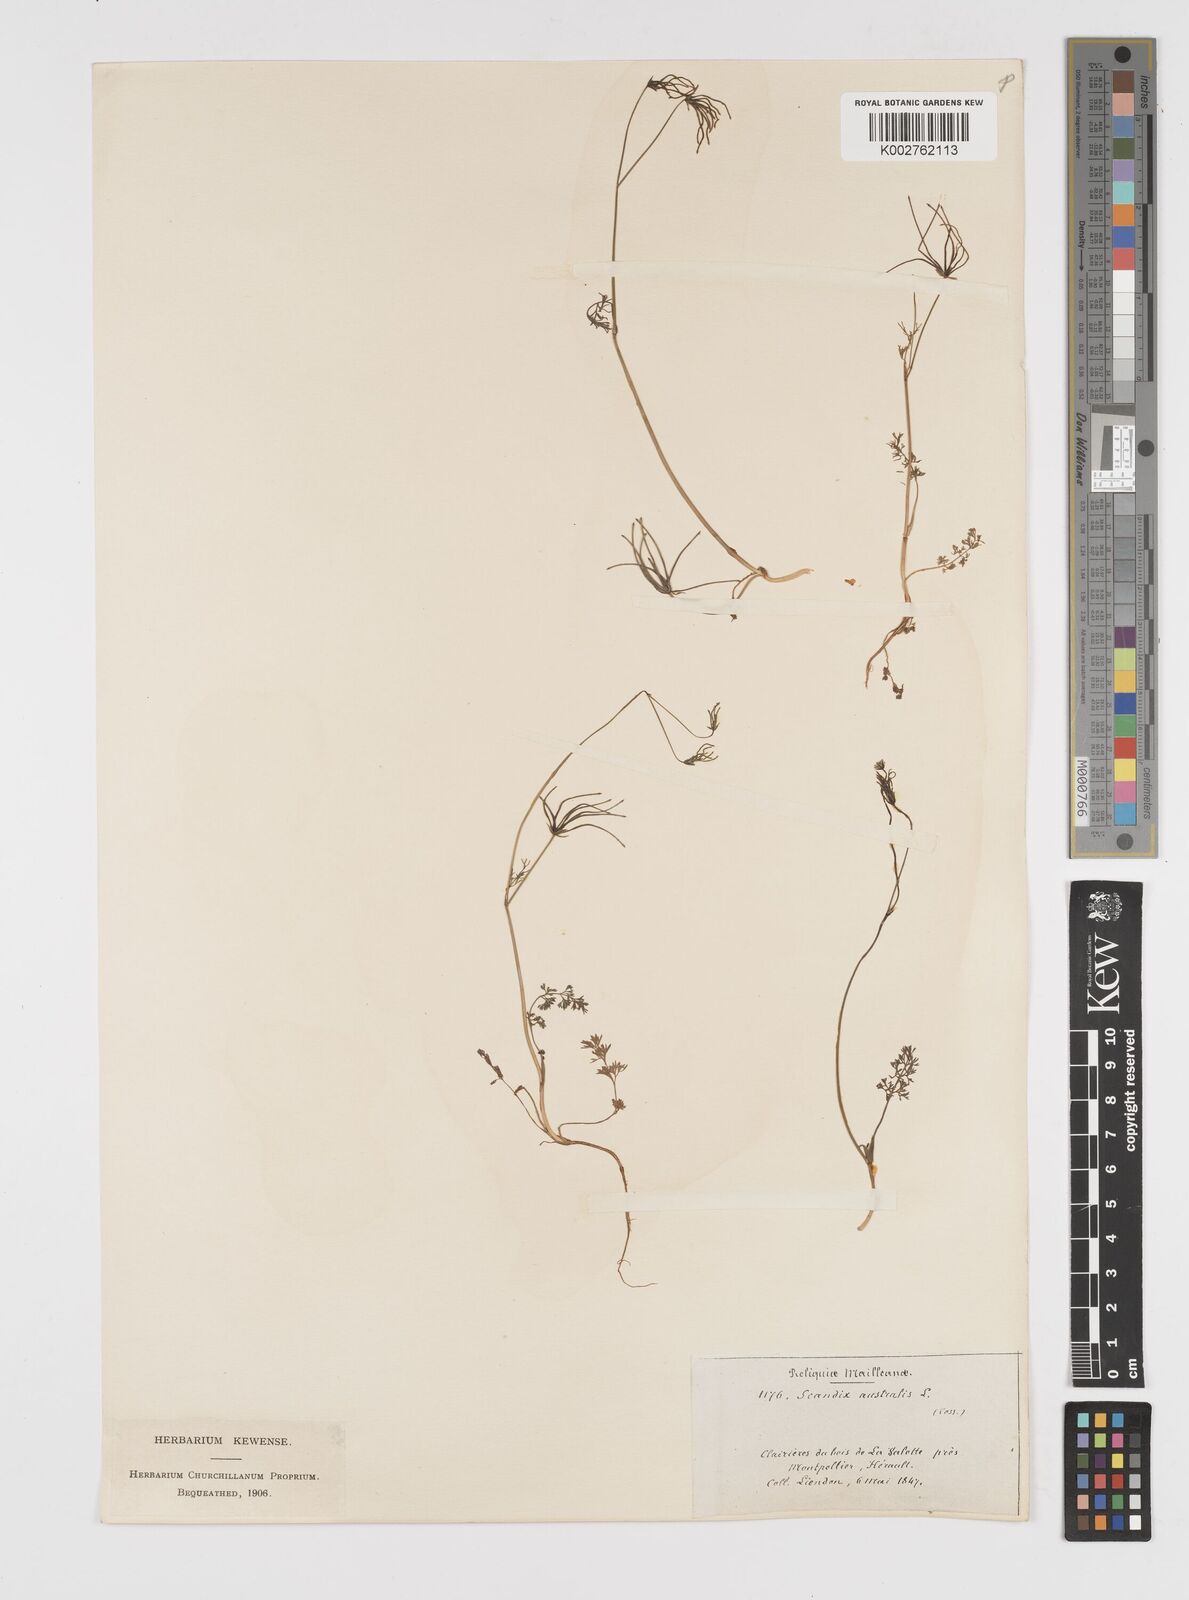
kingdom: Plantae
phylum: Tracheophyta
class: Magnoliopsida
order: Apiales
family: Apiaceae
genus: Scandix
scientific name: Scandix australis
